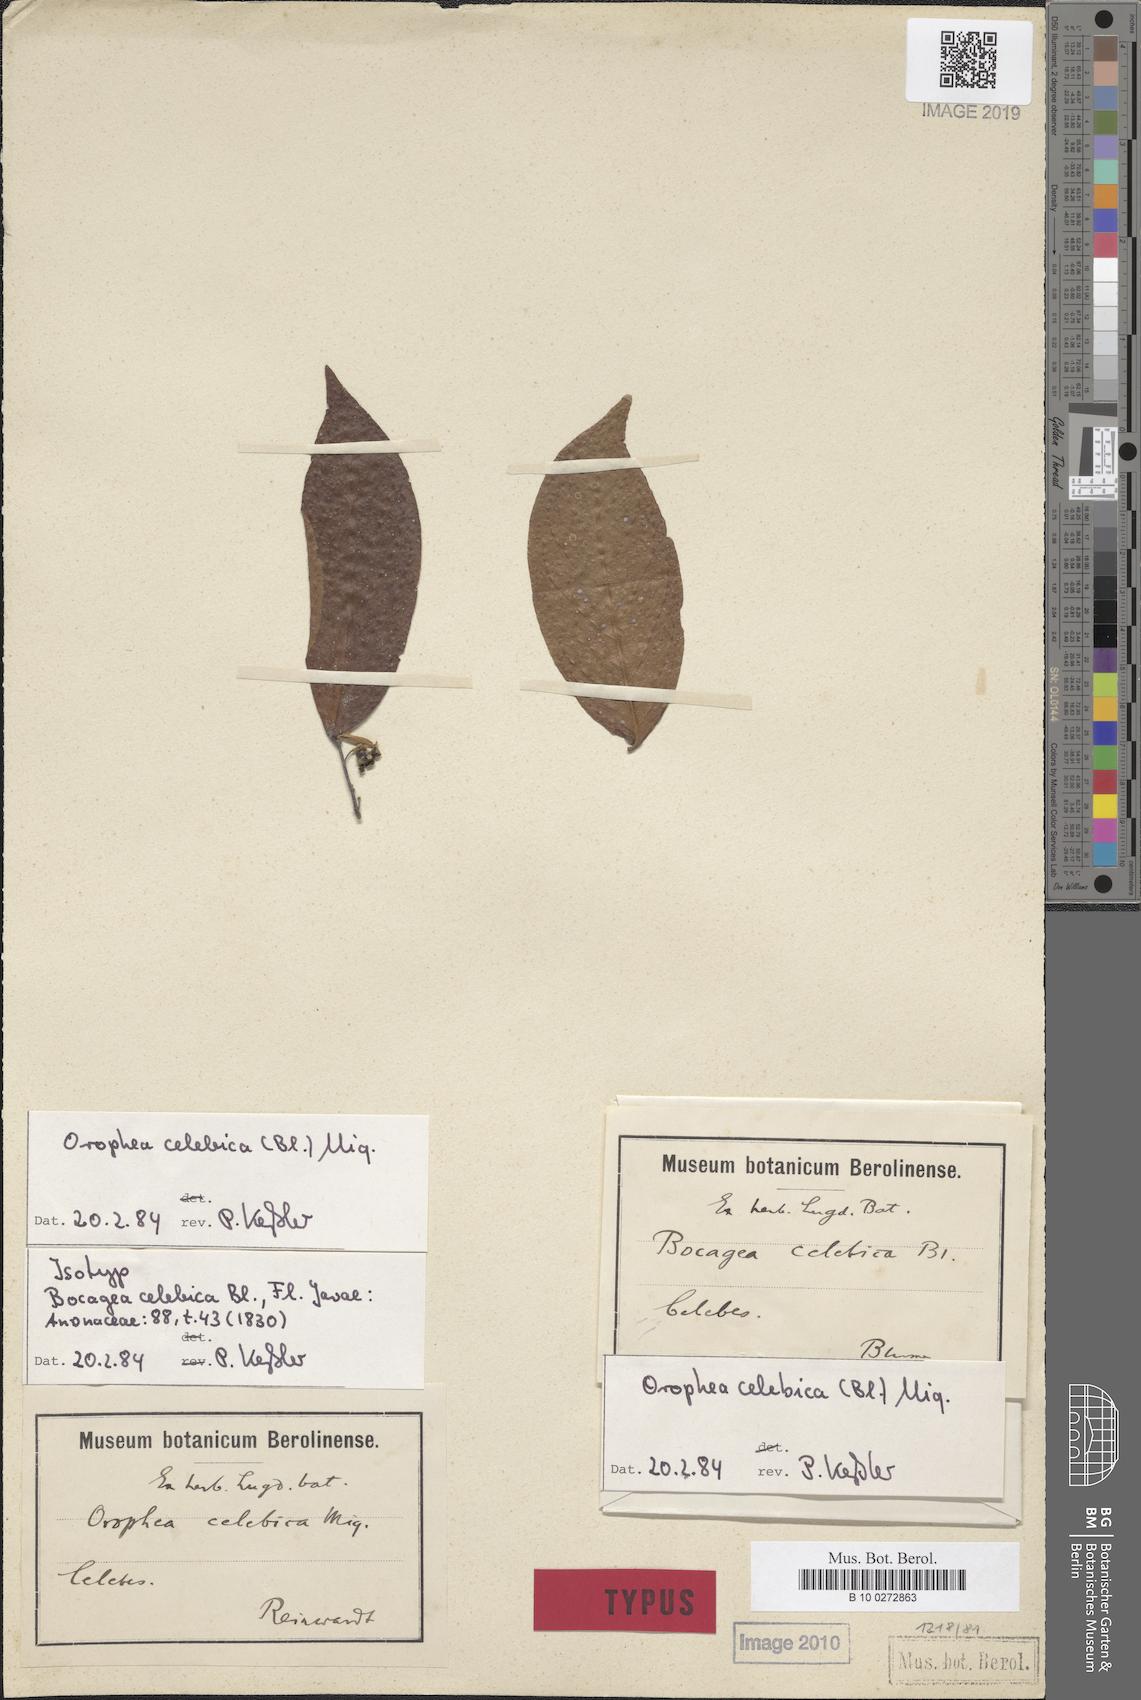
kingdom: Plantae
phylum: Tracheophyta
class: Magnoliopsida
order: Magnoliales
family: Annonaceae
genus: Orophea
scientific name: Orophea celebica
